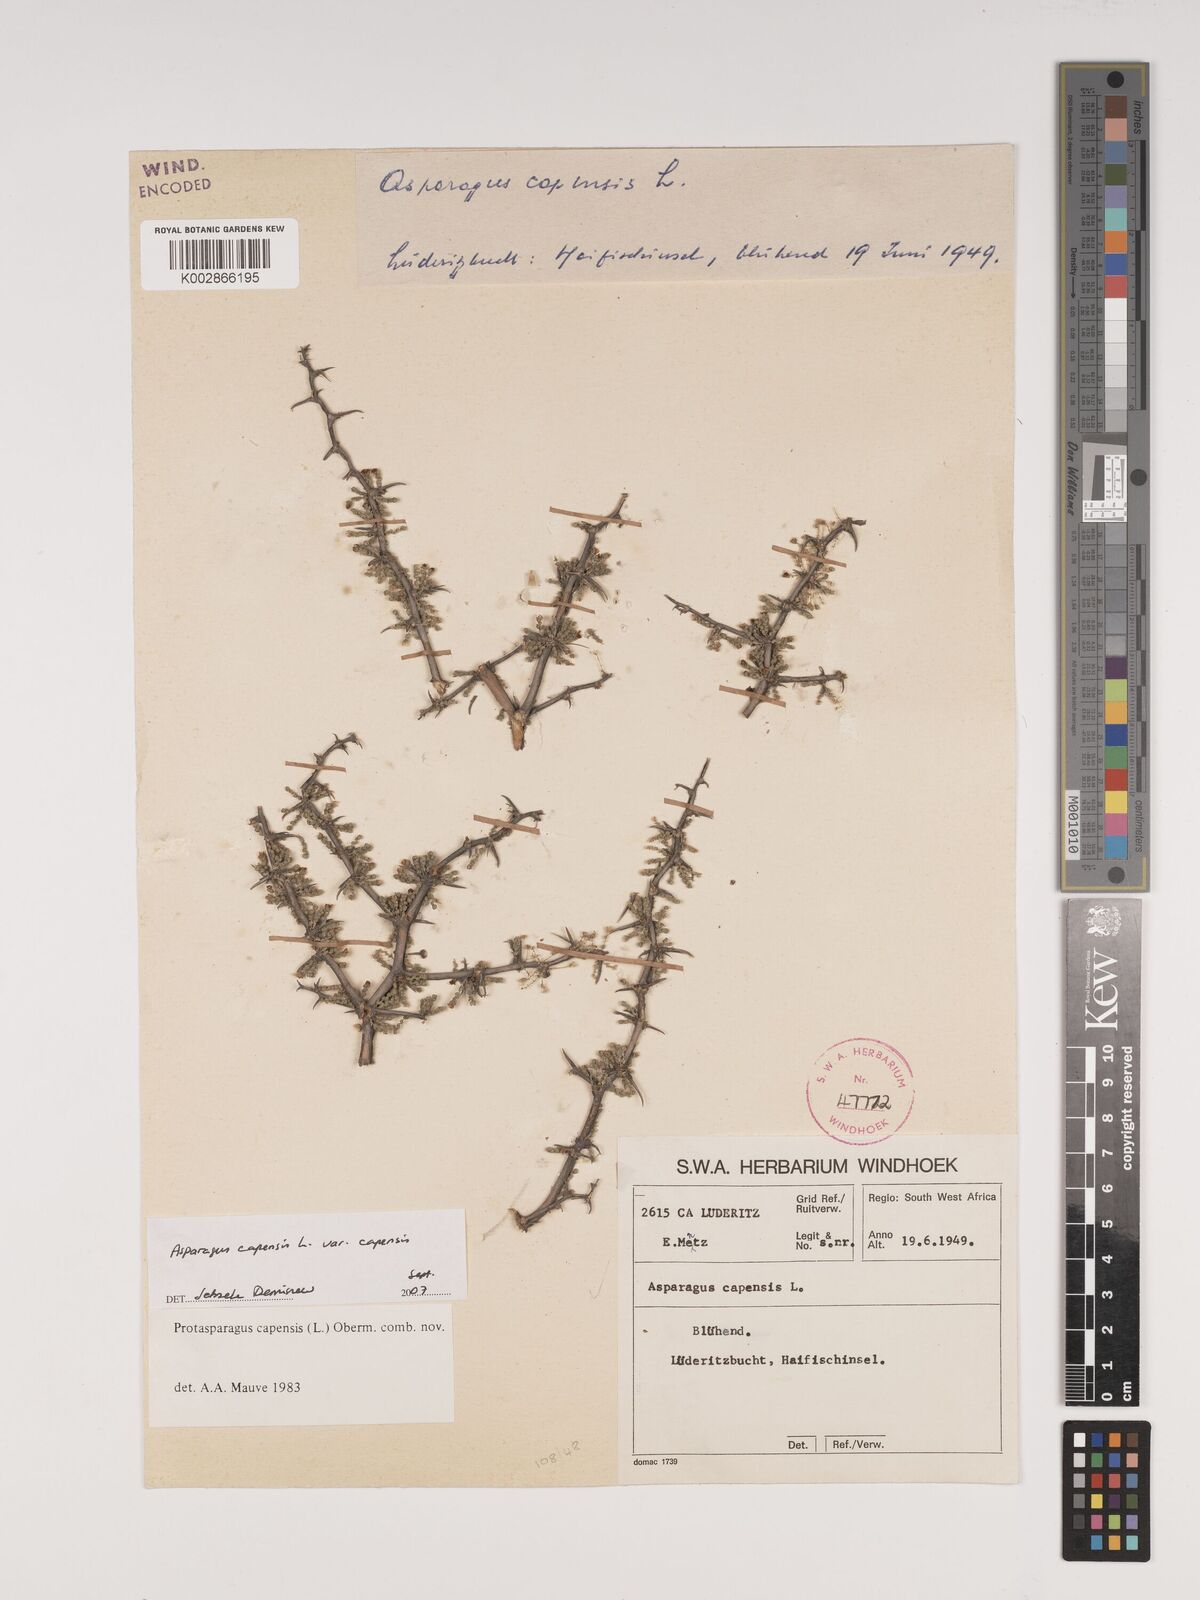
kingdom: Plantae
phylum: Tracheophyta
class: Liliopsida
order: Asparagales
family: Asparagaceae
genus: Asparagus
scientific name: Asparagus capensis
